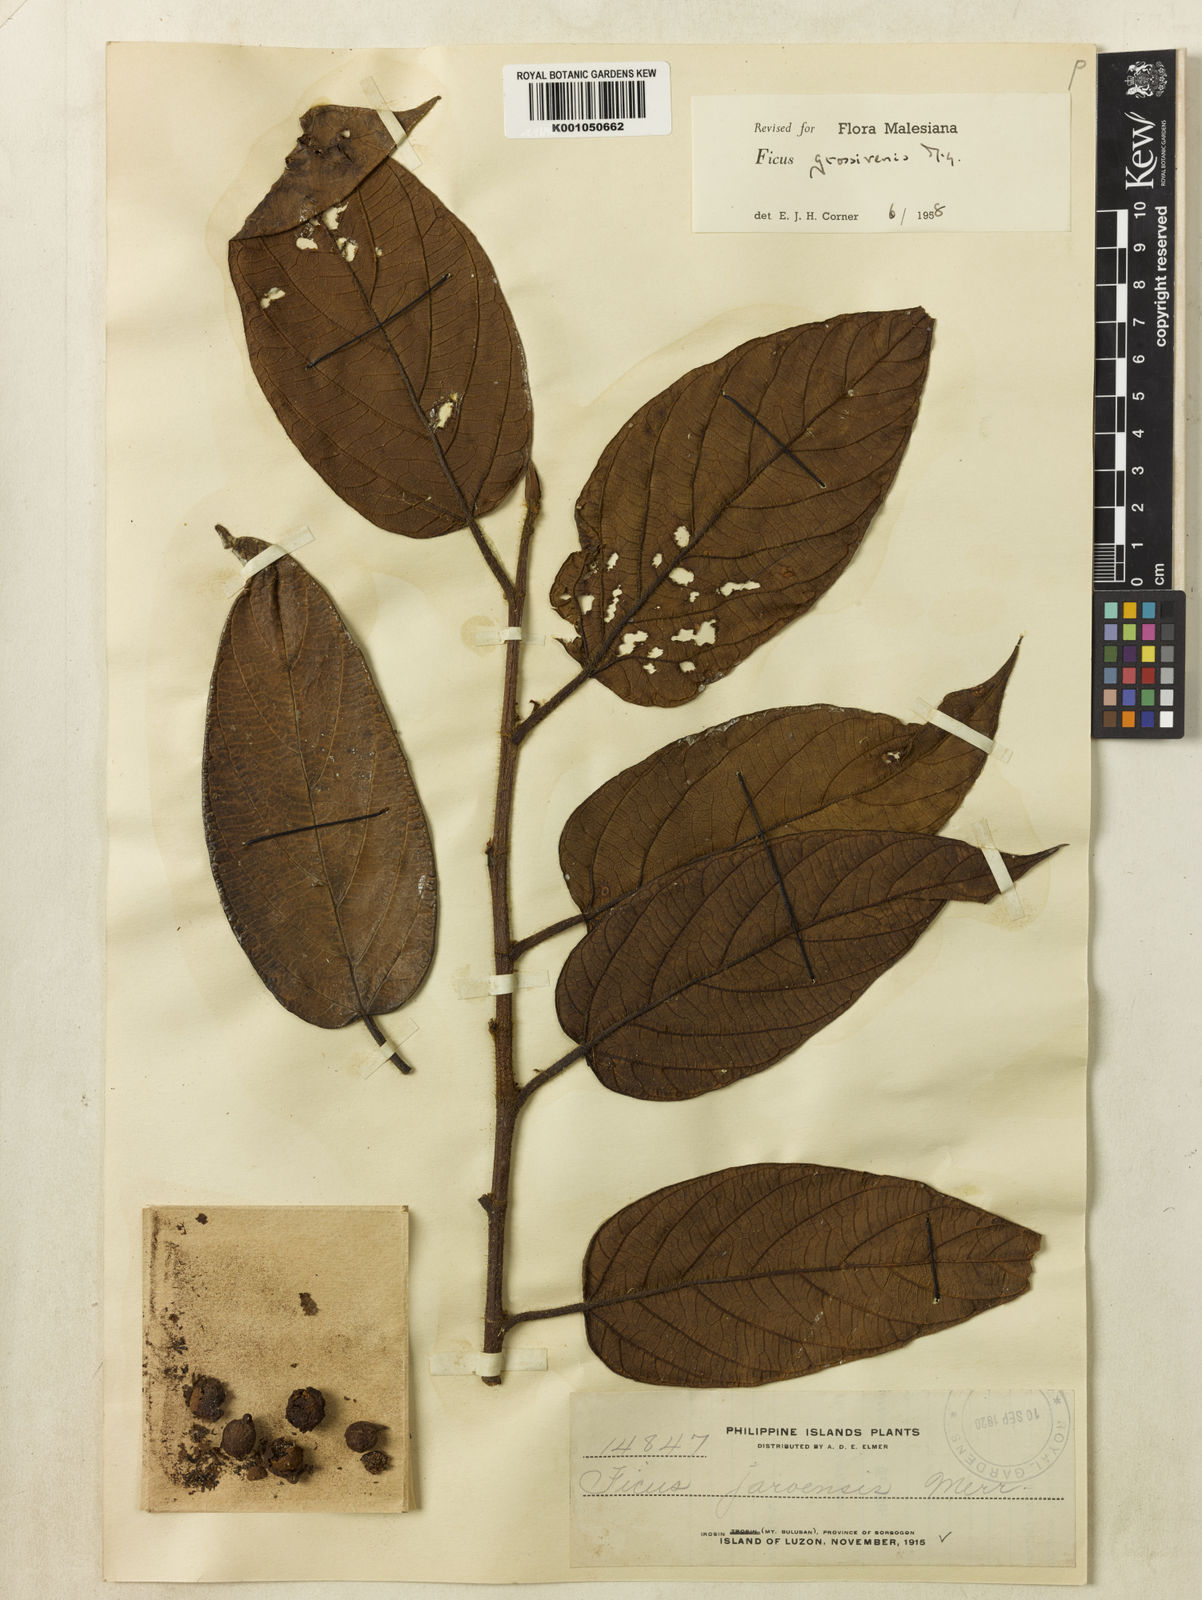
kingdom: Plantae
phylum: Tracheophyta
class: Magnoliopsida
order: Rosales
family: Moraceae
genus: Ficus
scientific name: Ficus villosa
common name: Villous fig
